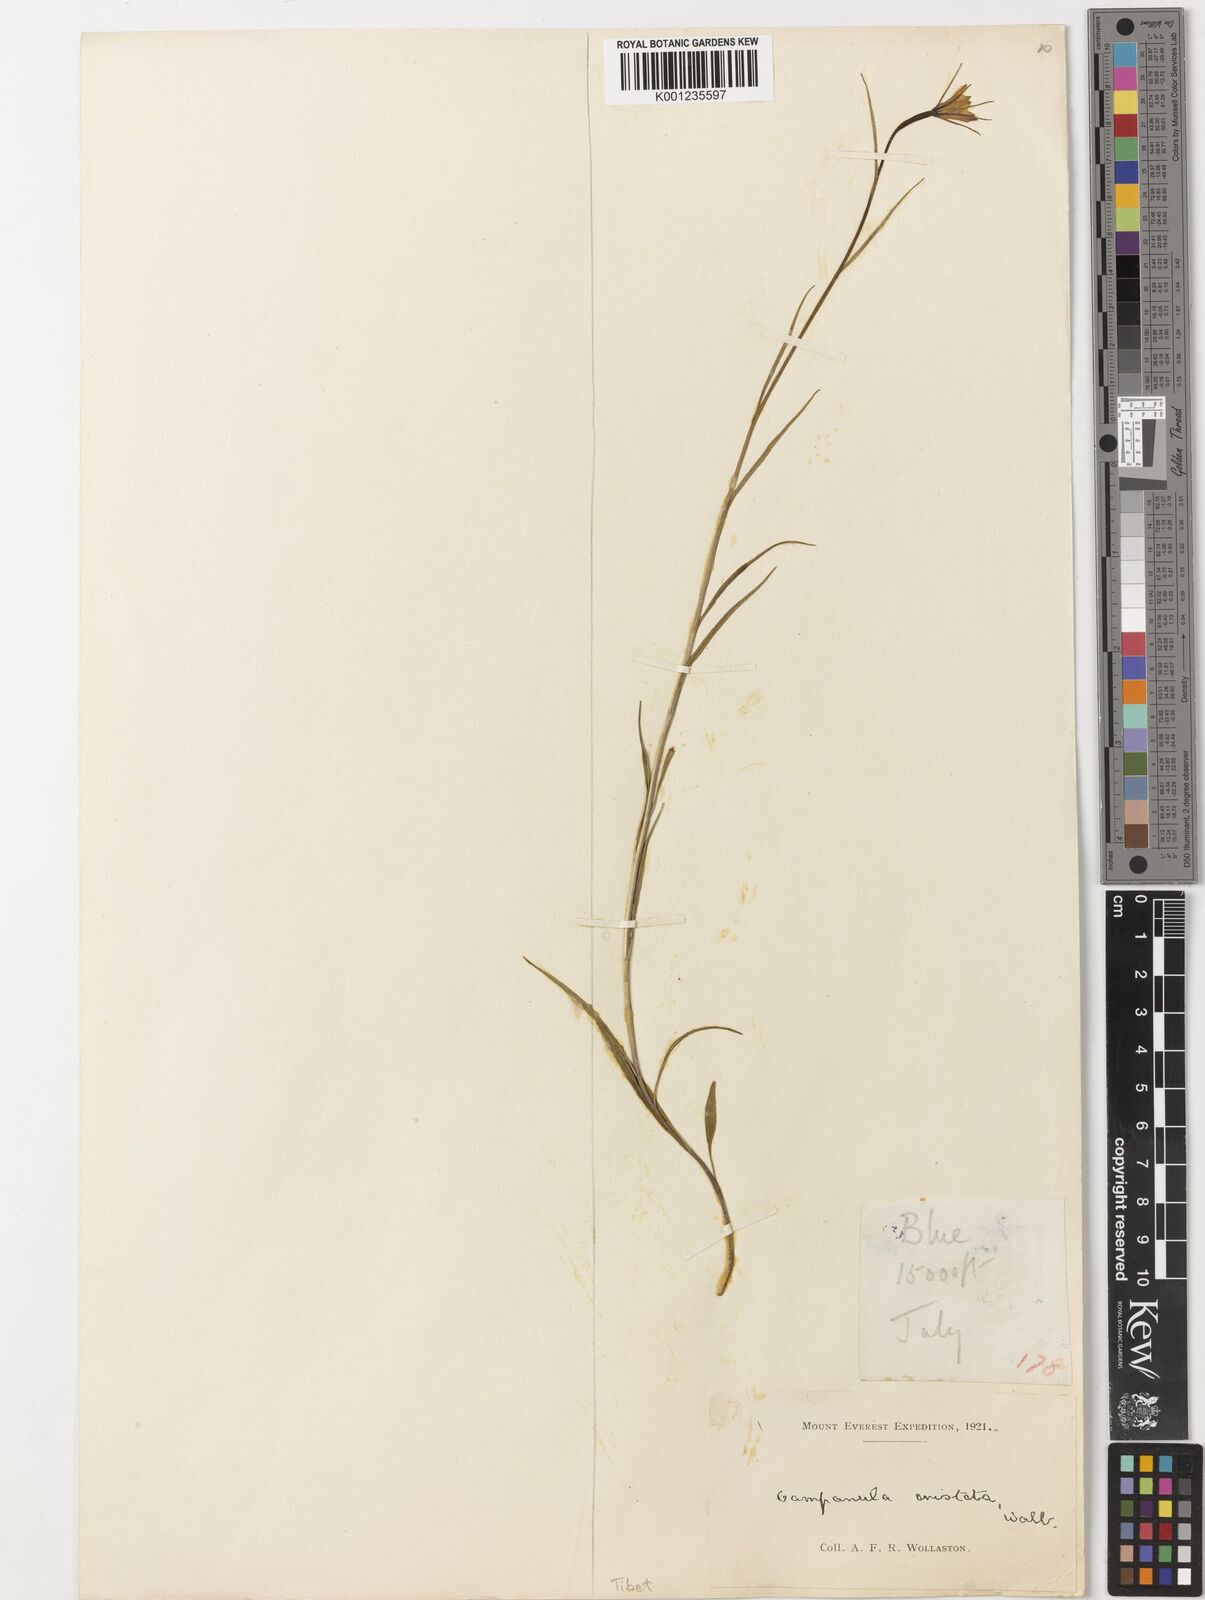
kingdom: Plantae
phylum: Tracheophyta
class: Magnoliopsida
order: Asterales
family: Campanulaceae
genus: Campanula
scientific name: Campanula aristata
